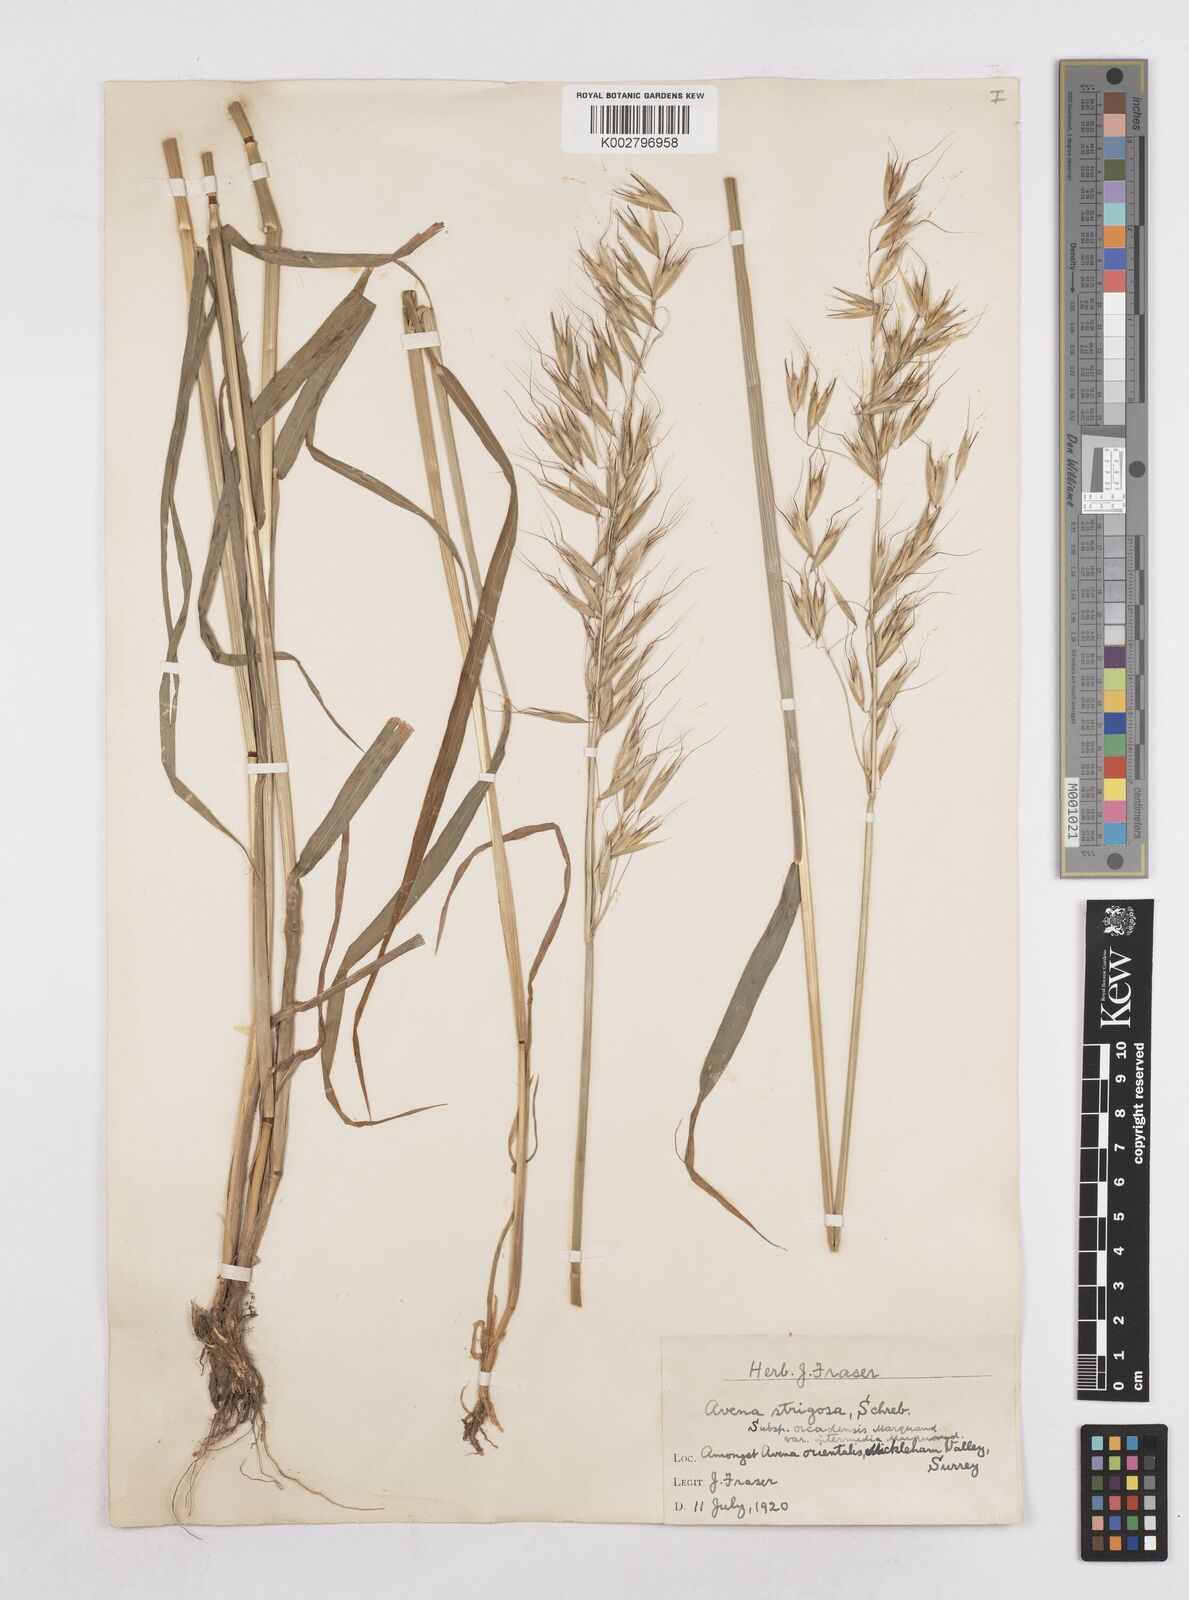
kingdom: Plantae
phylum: Tracheophyta
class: Liliopsida
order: Poales
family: Poaceae
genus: Avena
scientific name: Avena strigosa
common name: Bristle oat
